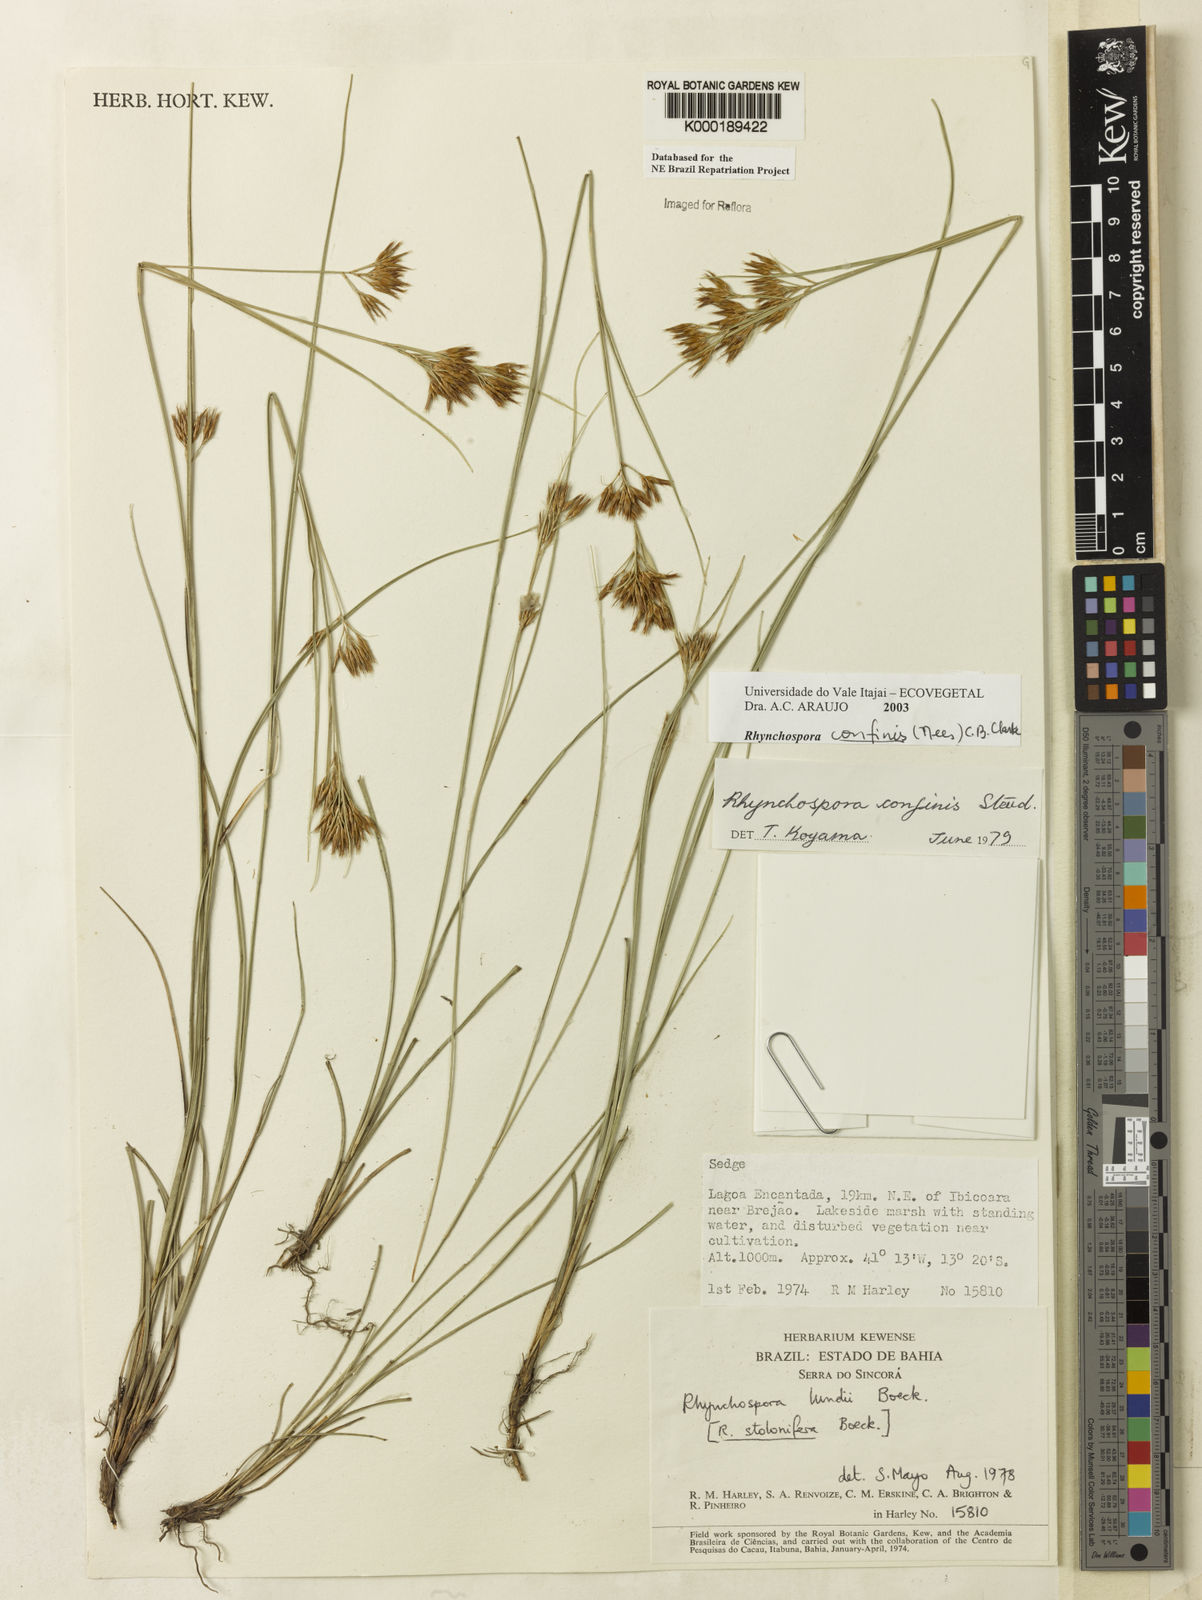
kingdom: Plantae
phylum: Tracheophyta
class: Liliopsida
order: Poales
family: Cyperaceae
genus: Rhynchospora
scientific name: Rhynchospora confinis
